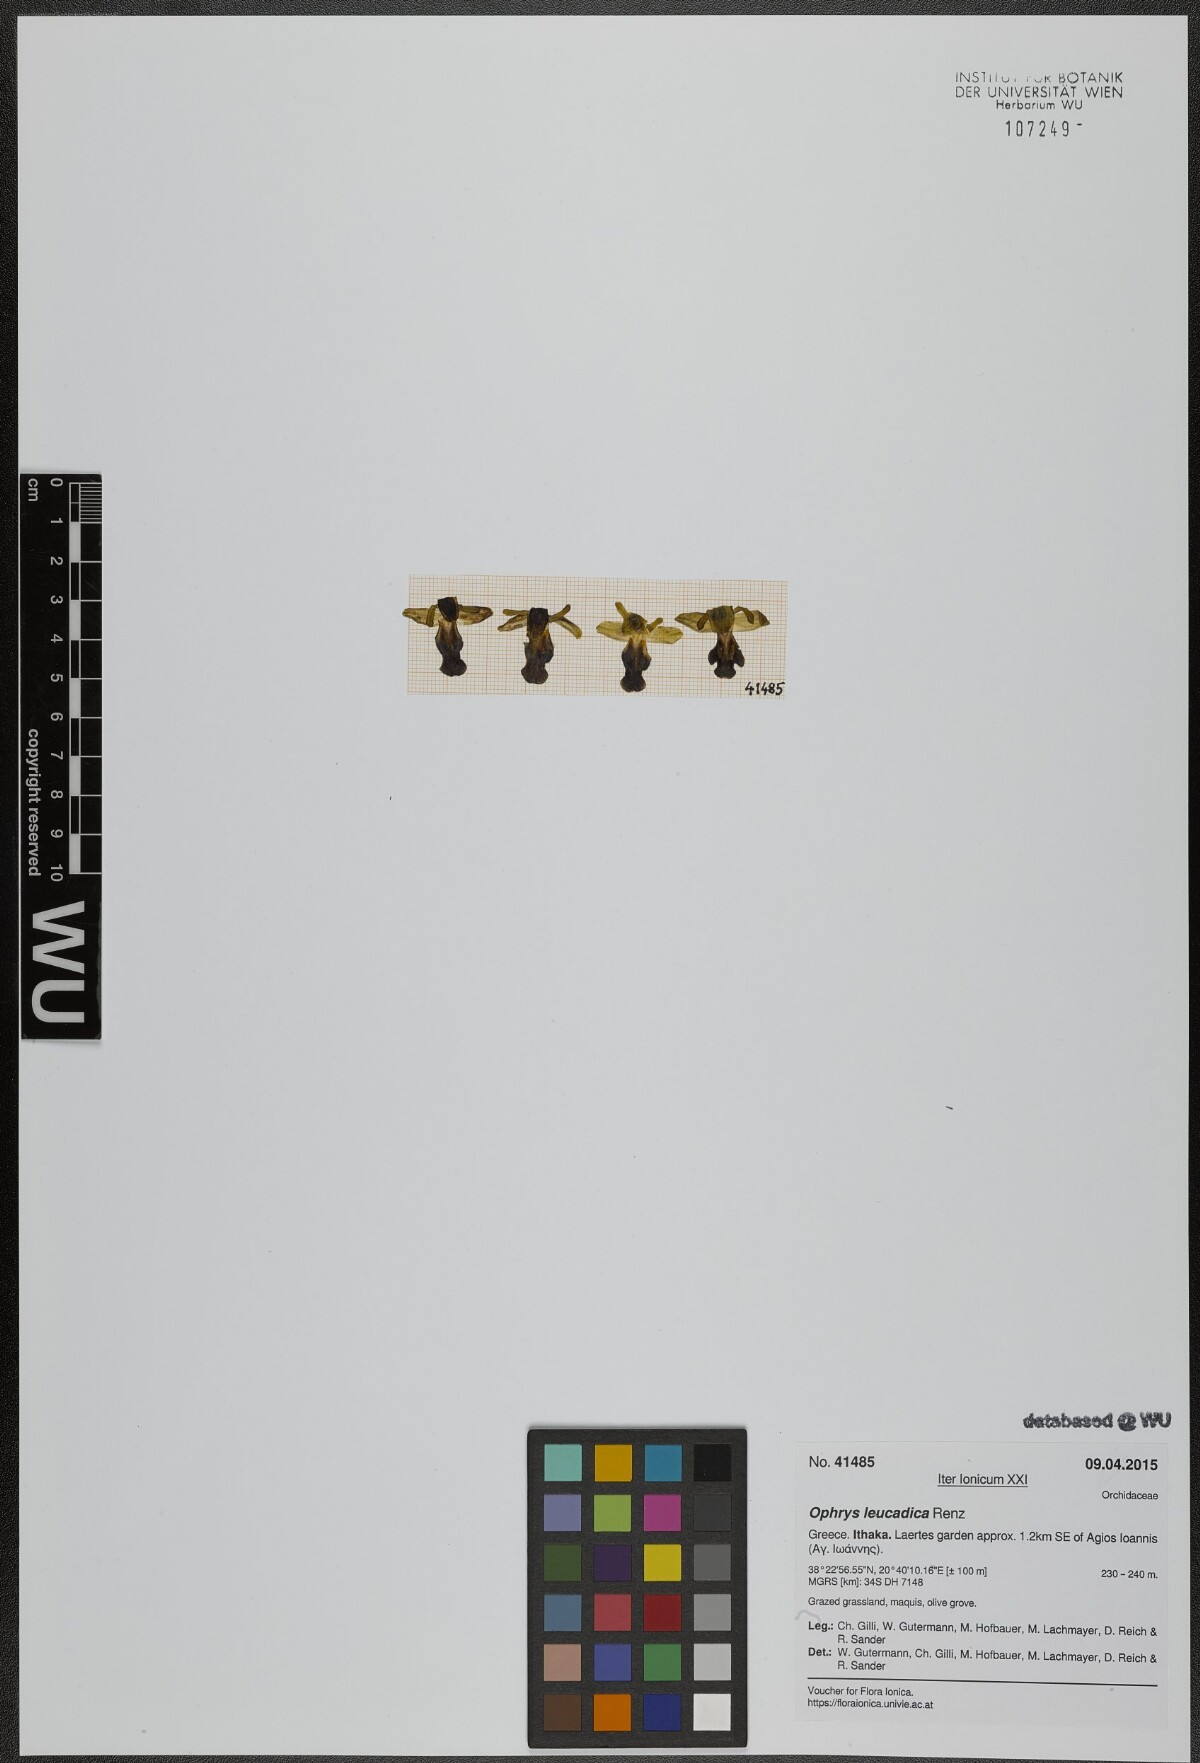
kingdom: Plantae
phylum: Tracheophyta
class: Liliopsida
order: Asparagales
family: Orchidaceae
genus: Ophrys
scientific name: Ophrys fusca
